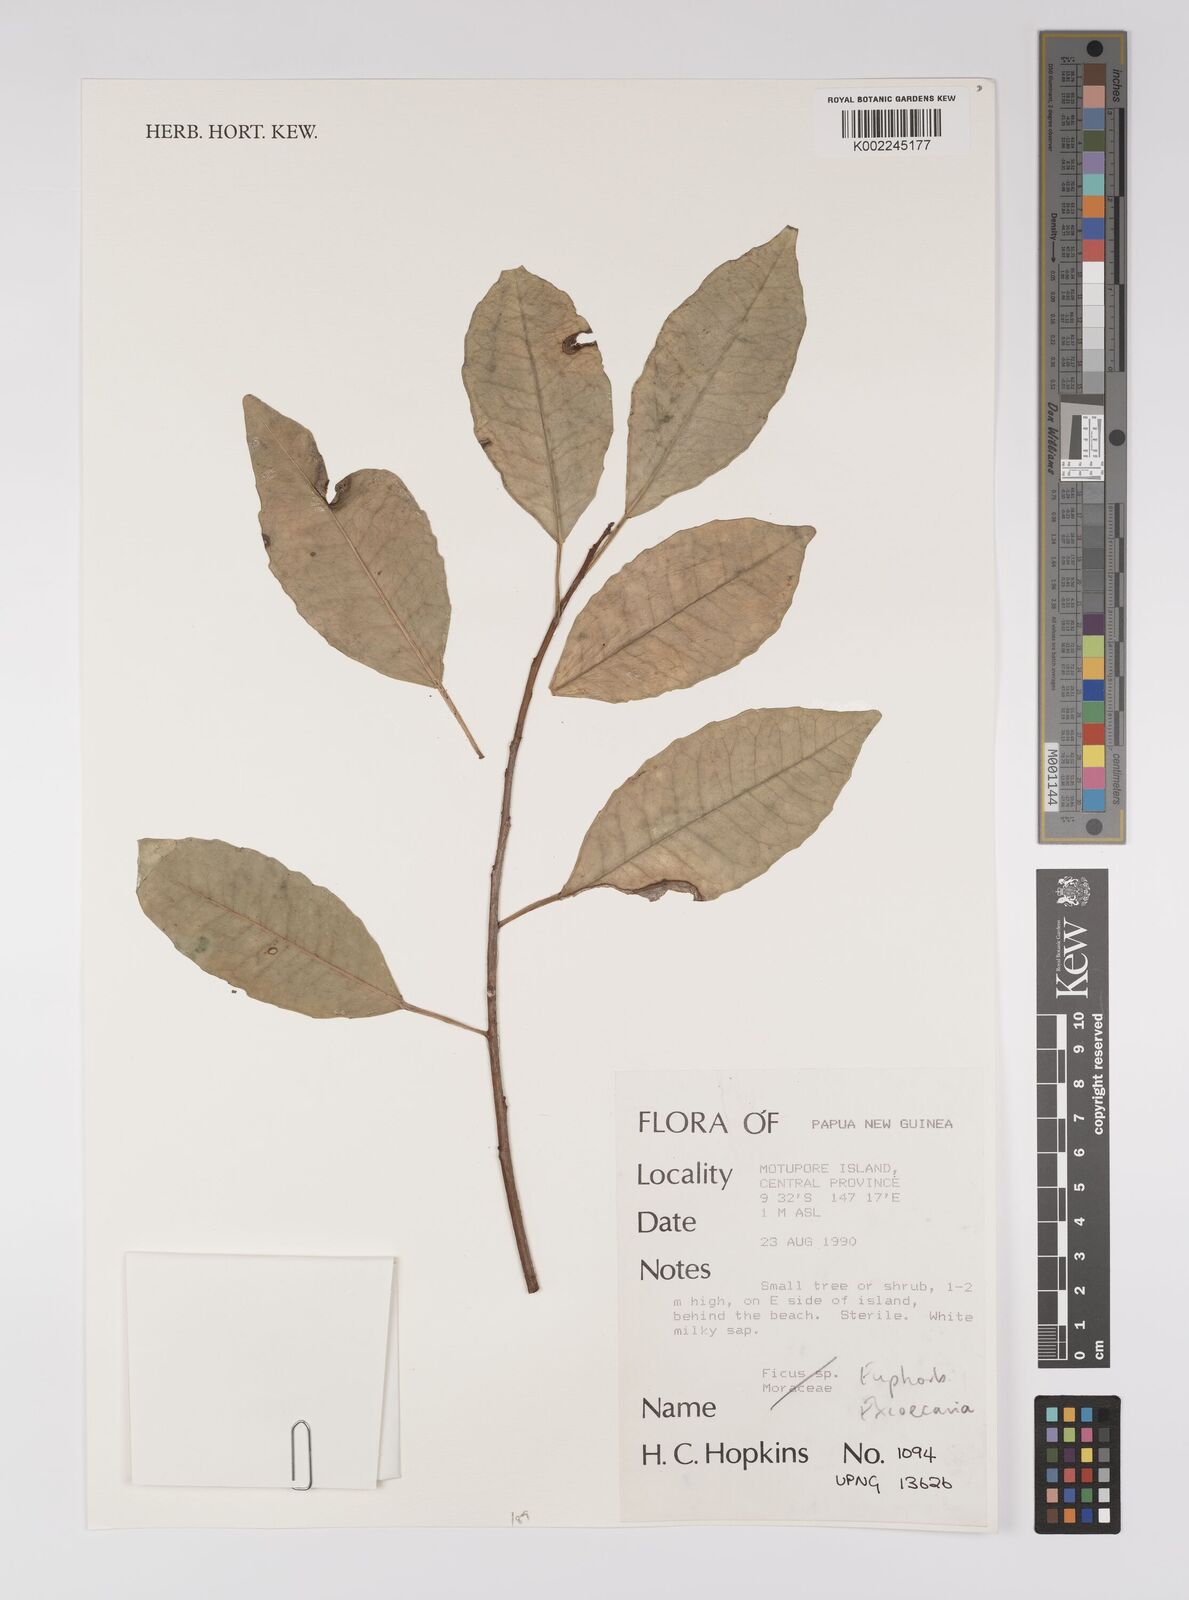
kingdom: Plantae
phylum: Tracheophyta
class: Magnoliopsida
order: Malpighiales
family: Euphorbiaceae
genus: Excoecaria
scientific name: Excoecaria
